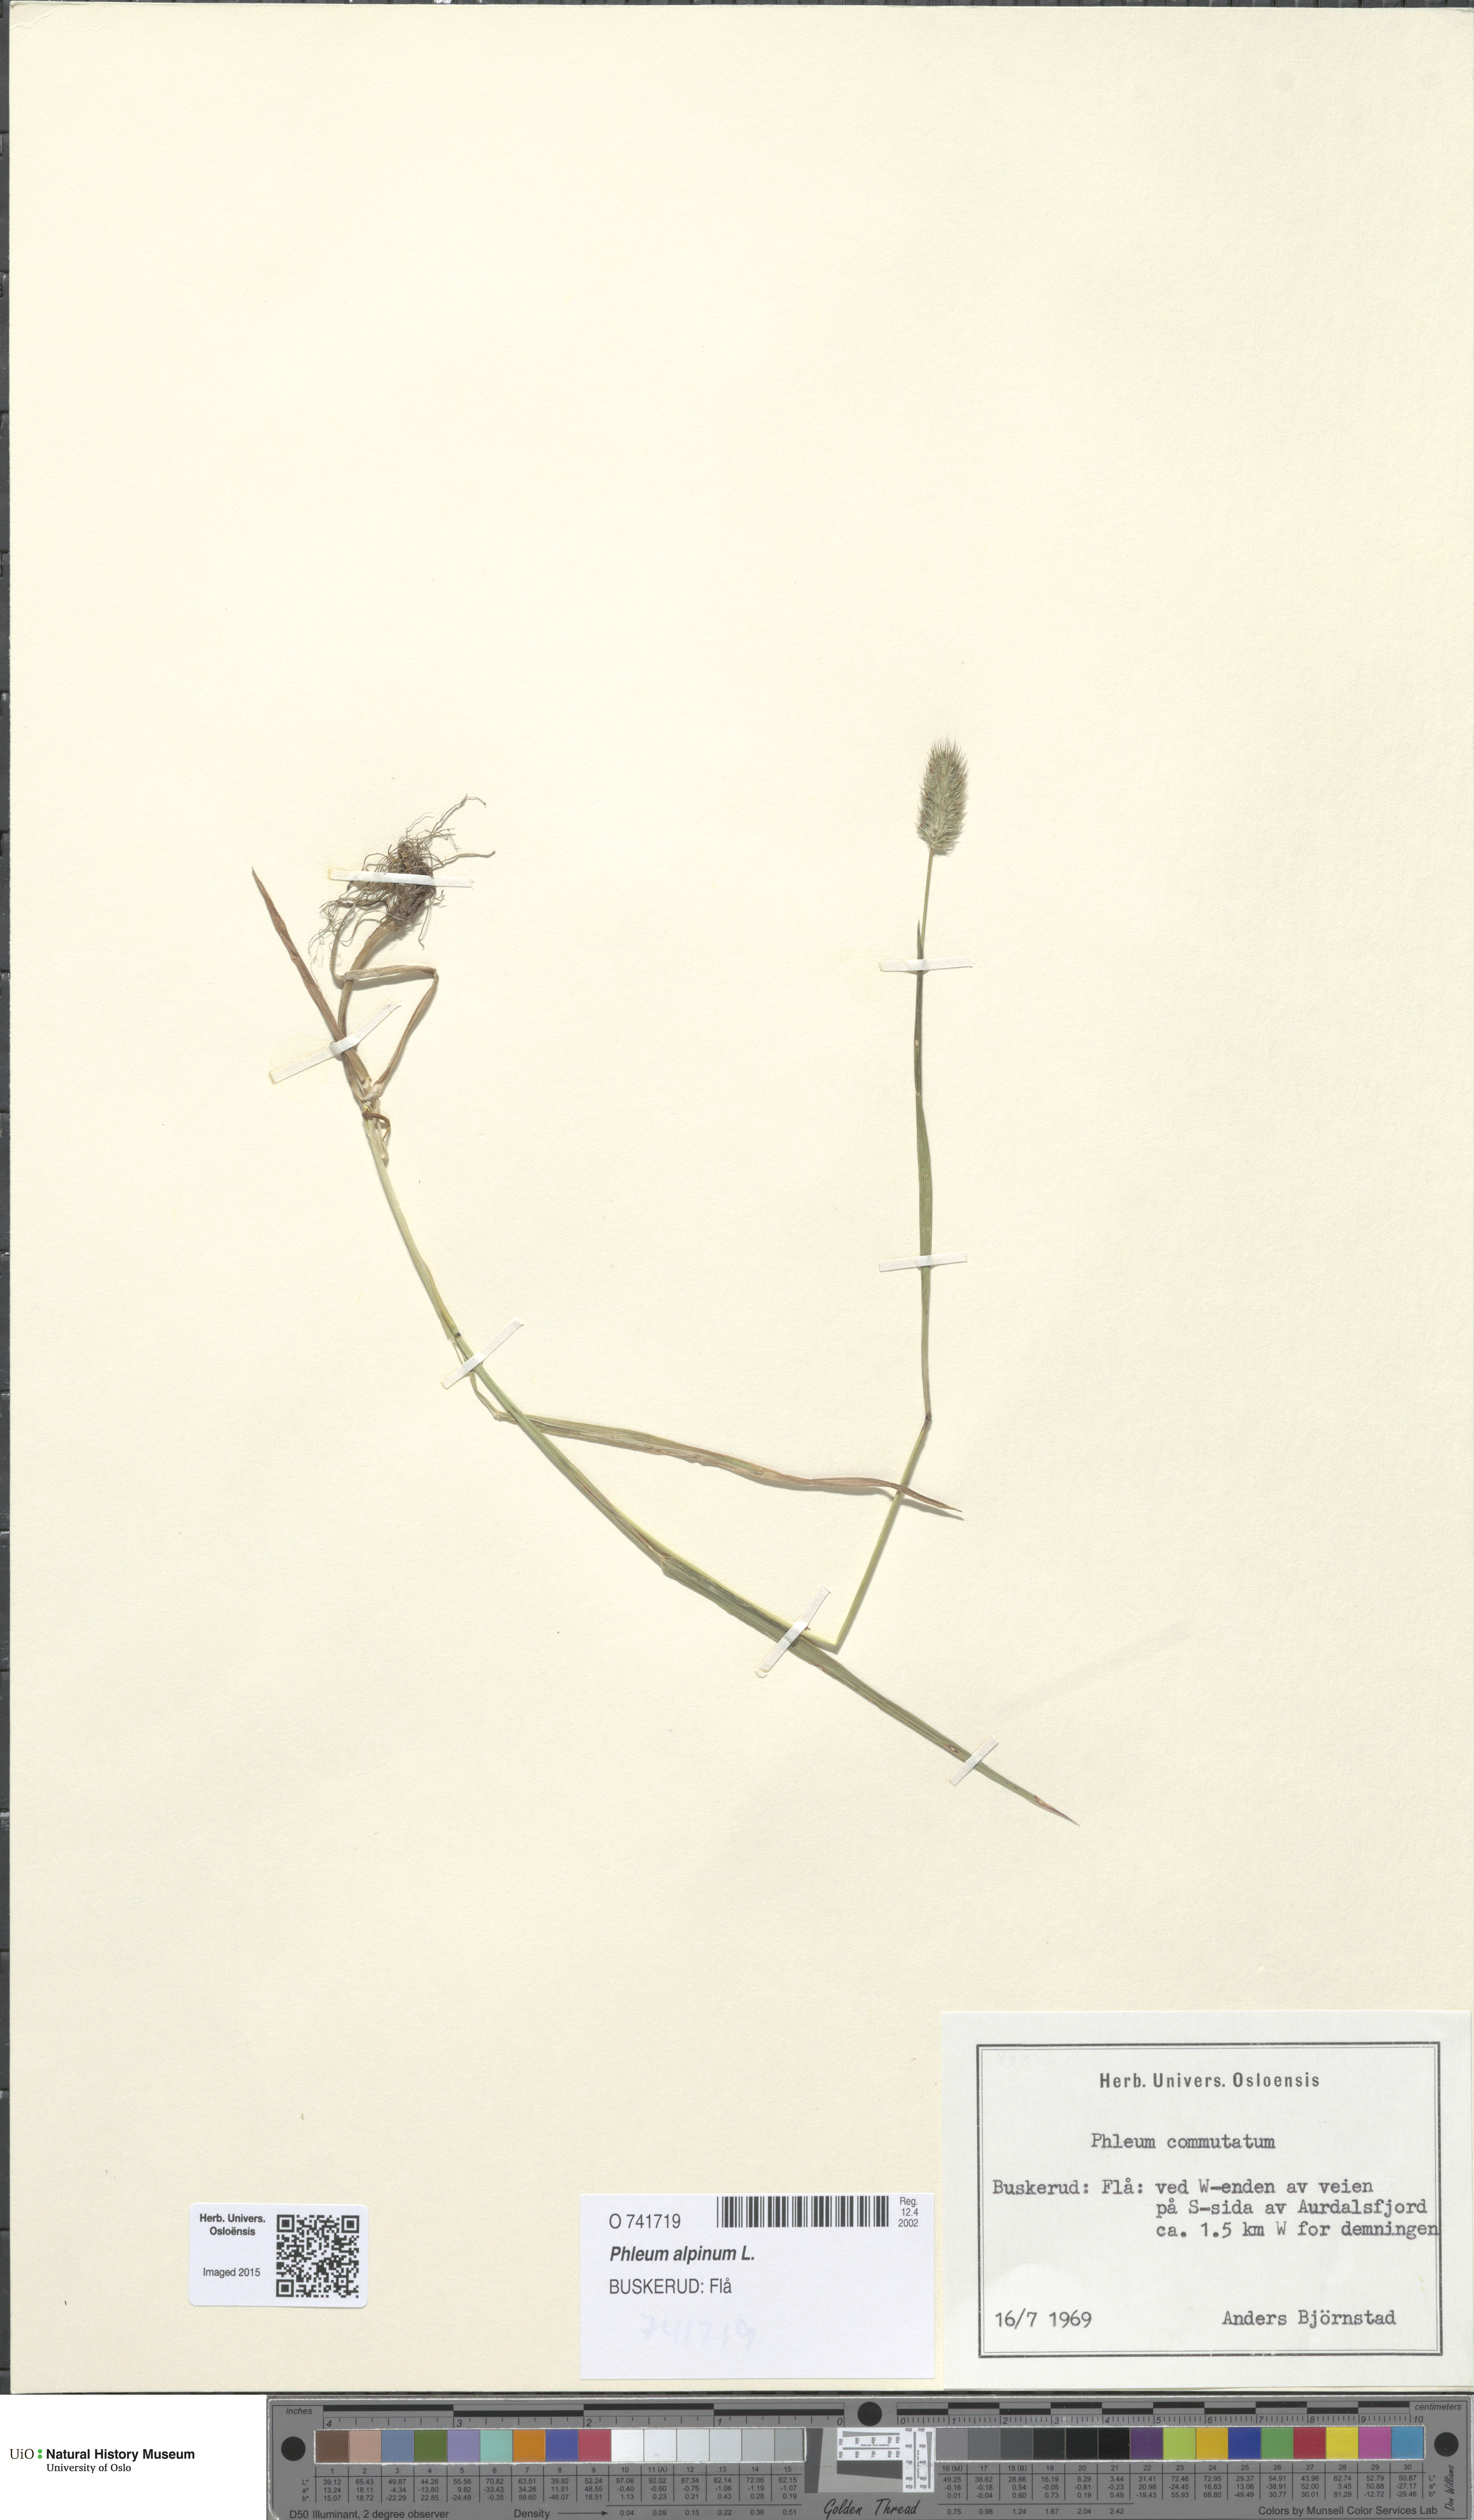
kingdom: Plantae
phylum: Tracheophyta
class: Liliopsida
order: Poales
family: Poaceae
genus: Phleum
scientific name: Phleum alpinum
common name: Alpine cat's-tail
